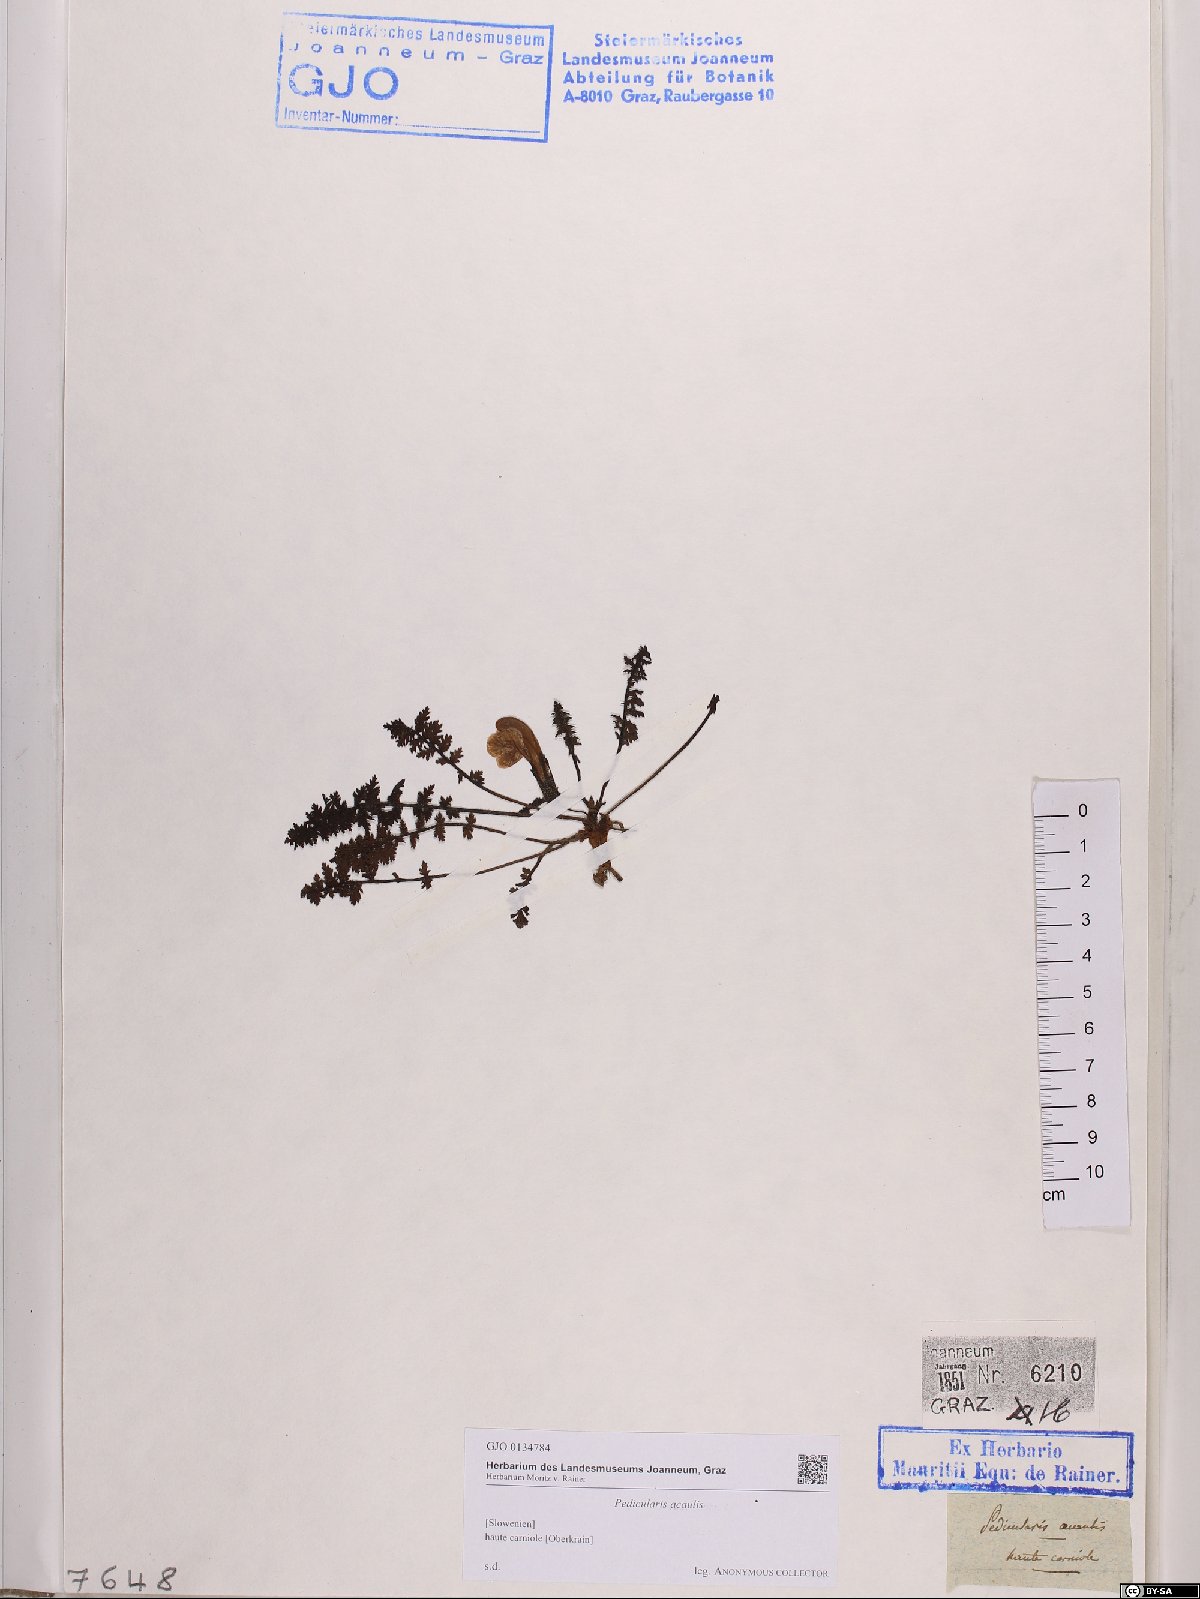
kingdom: Plantae
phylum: Tracheophyta
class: Magnoliopsida
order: Lamiales
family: Orobanchaceae
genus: Pedicularis
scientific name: Pedicularis acaulis
